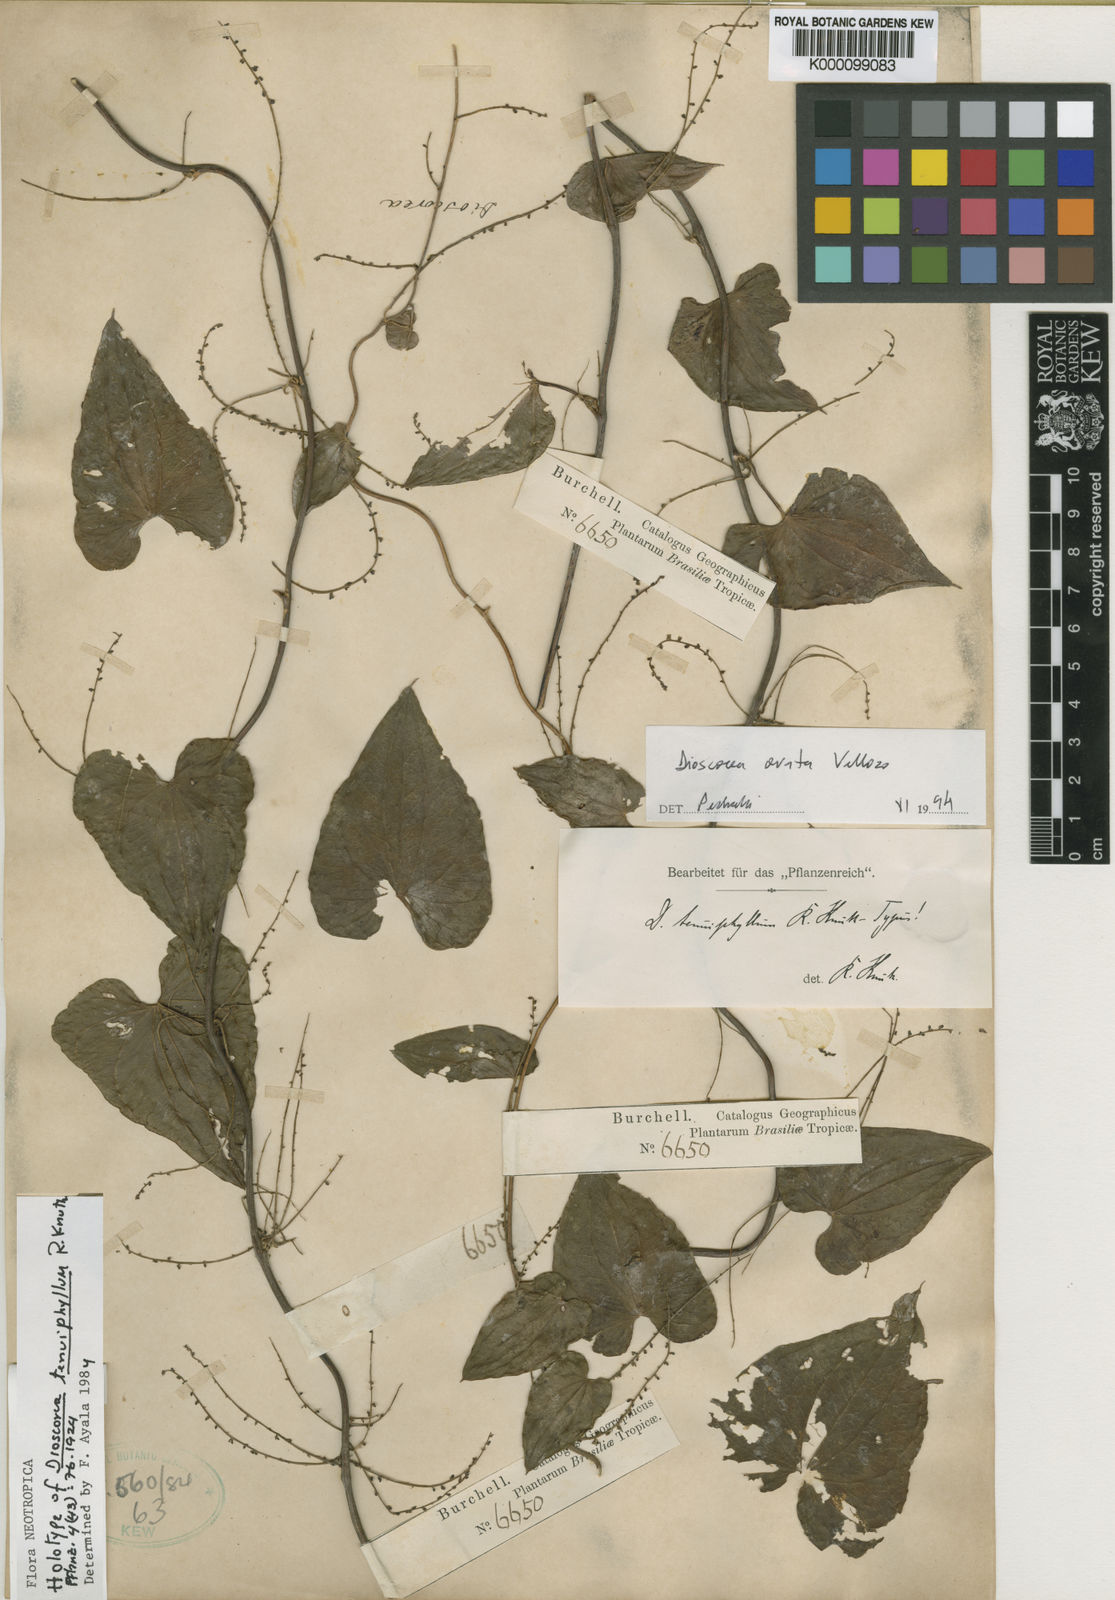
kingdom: Plantae
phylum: Tracheophyta
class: Liliopsida
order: Dioscoreales
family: Dioscoreaceae
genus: Dioscorea
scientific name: Dioscorea tenuiphyllum
